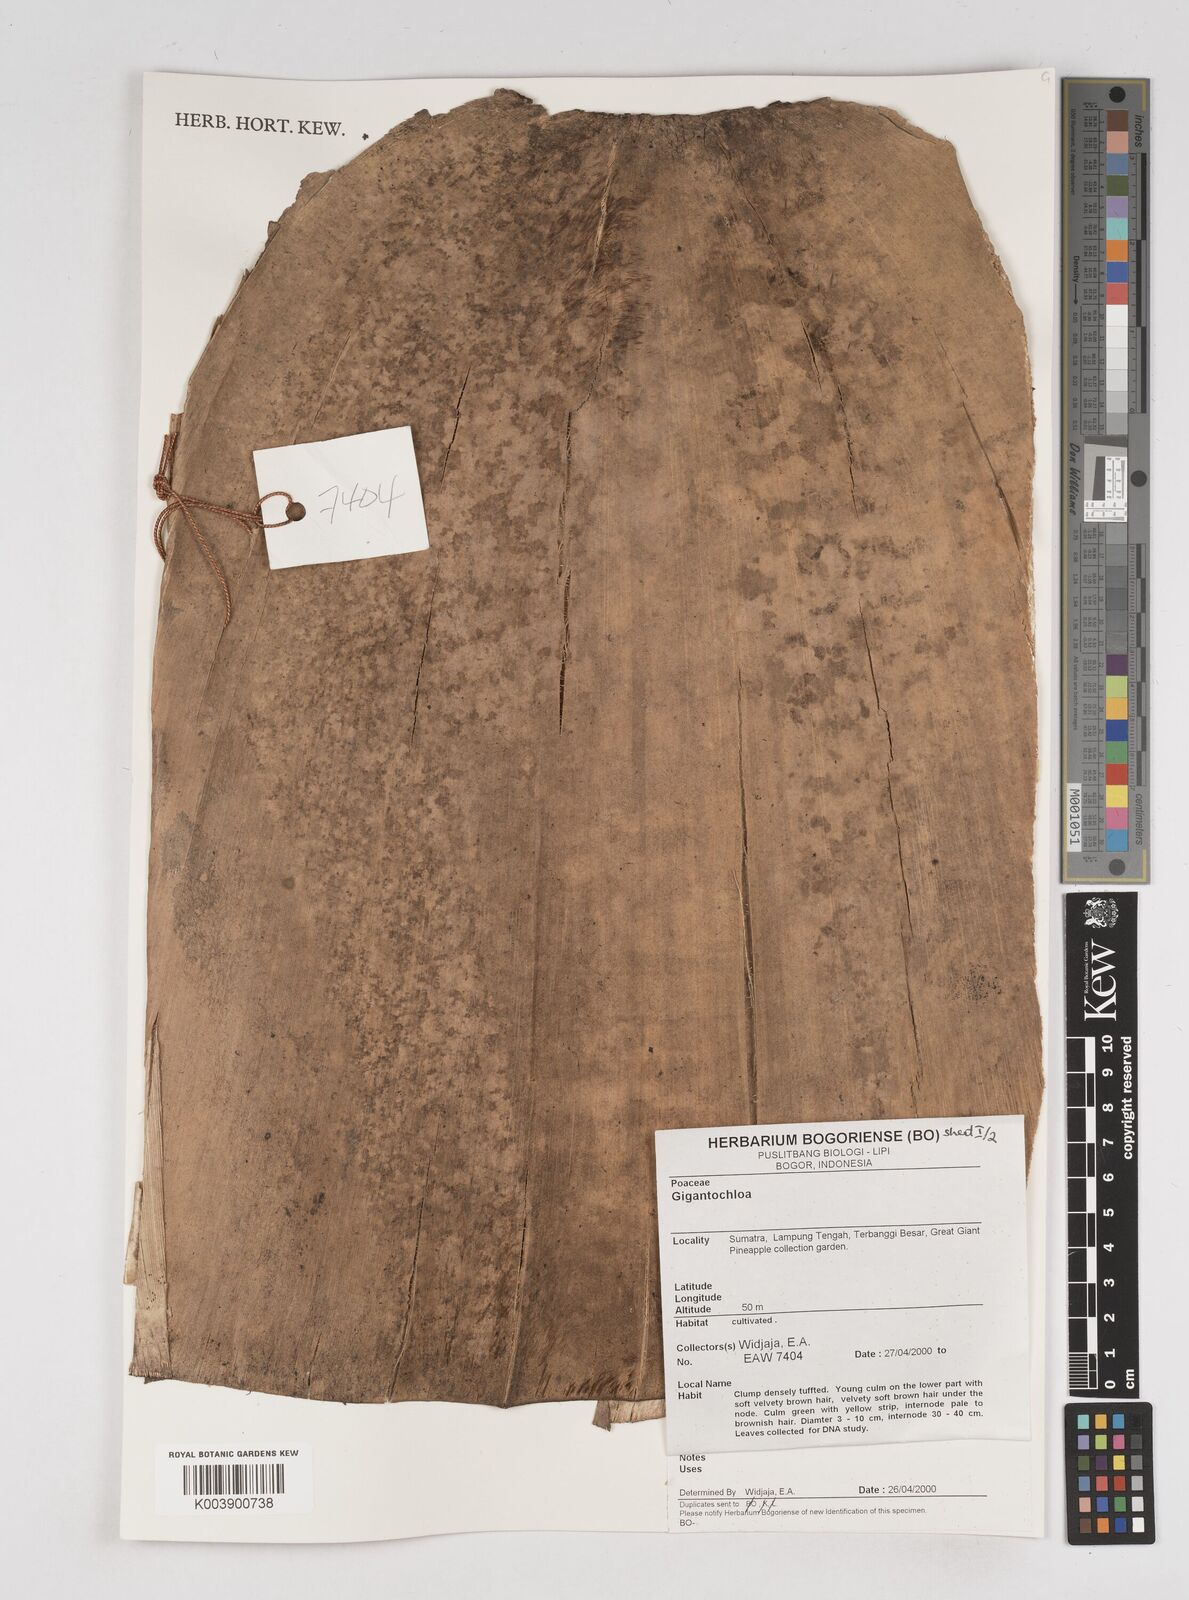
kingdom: Plantae
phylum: Tracheophyta
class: Liliopsida
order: Poales
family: Poaceae
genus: Gigantochloa
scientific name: Gigantochloa
